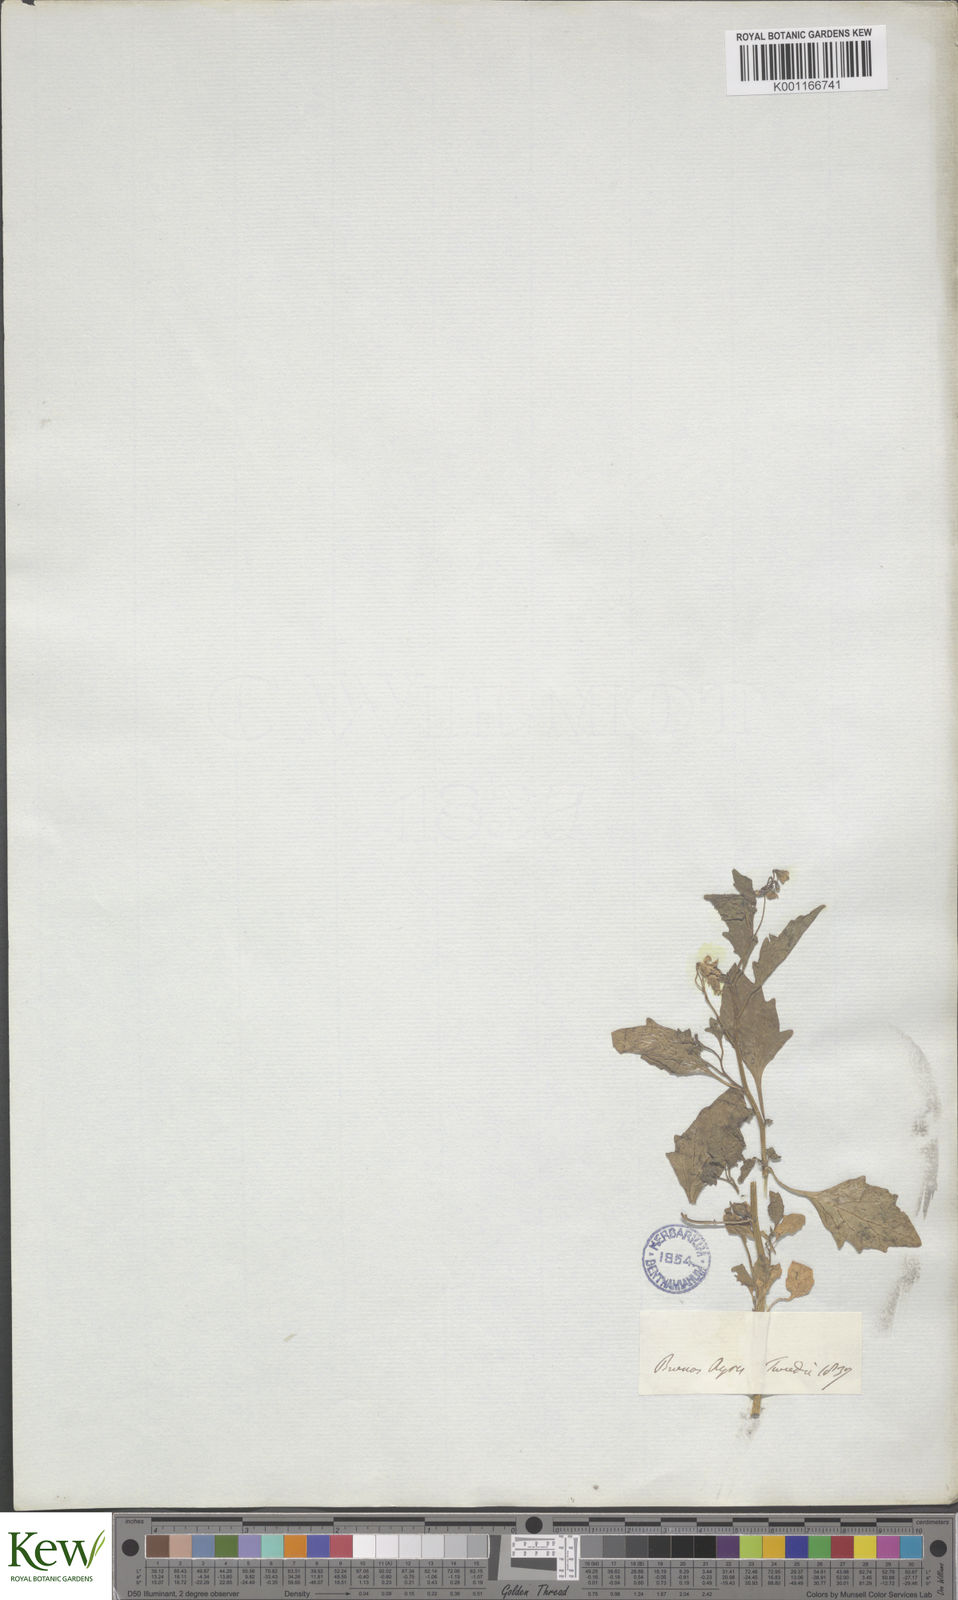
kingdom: Plantae
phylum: Tracheophyta
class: Magnoliopsida
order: Solanales
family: Solanaceae
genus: Solanum
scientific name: Solanum
